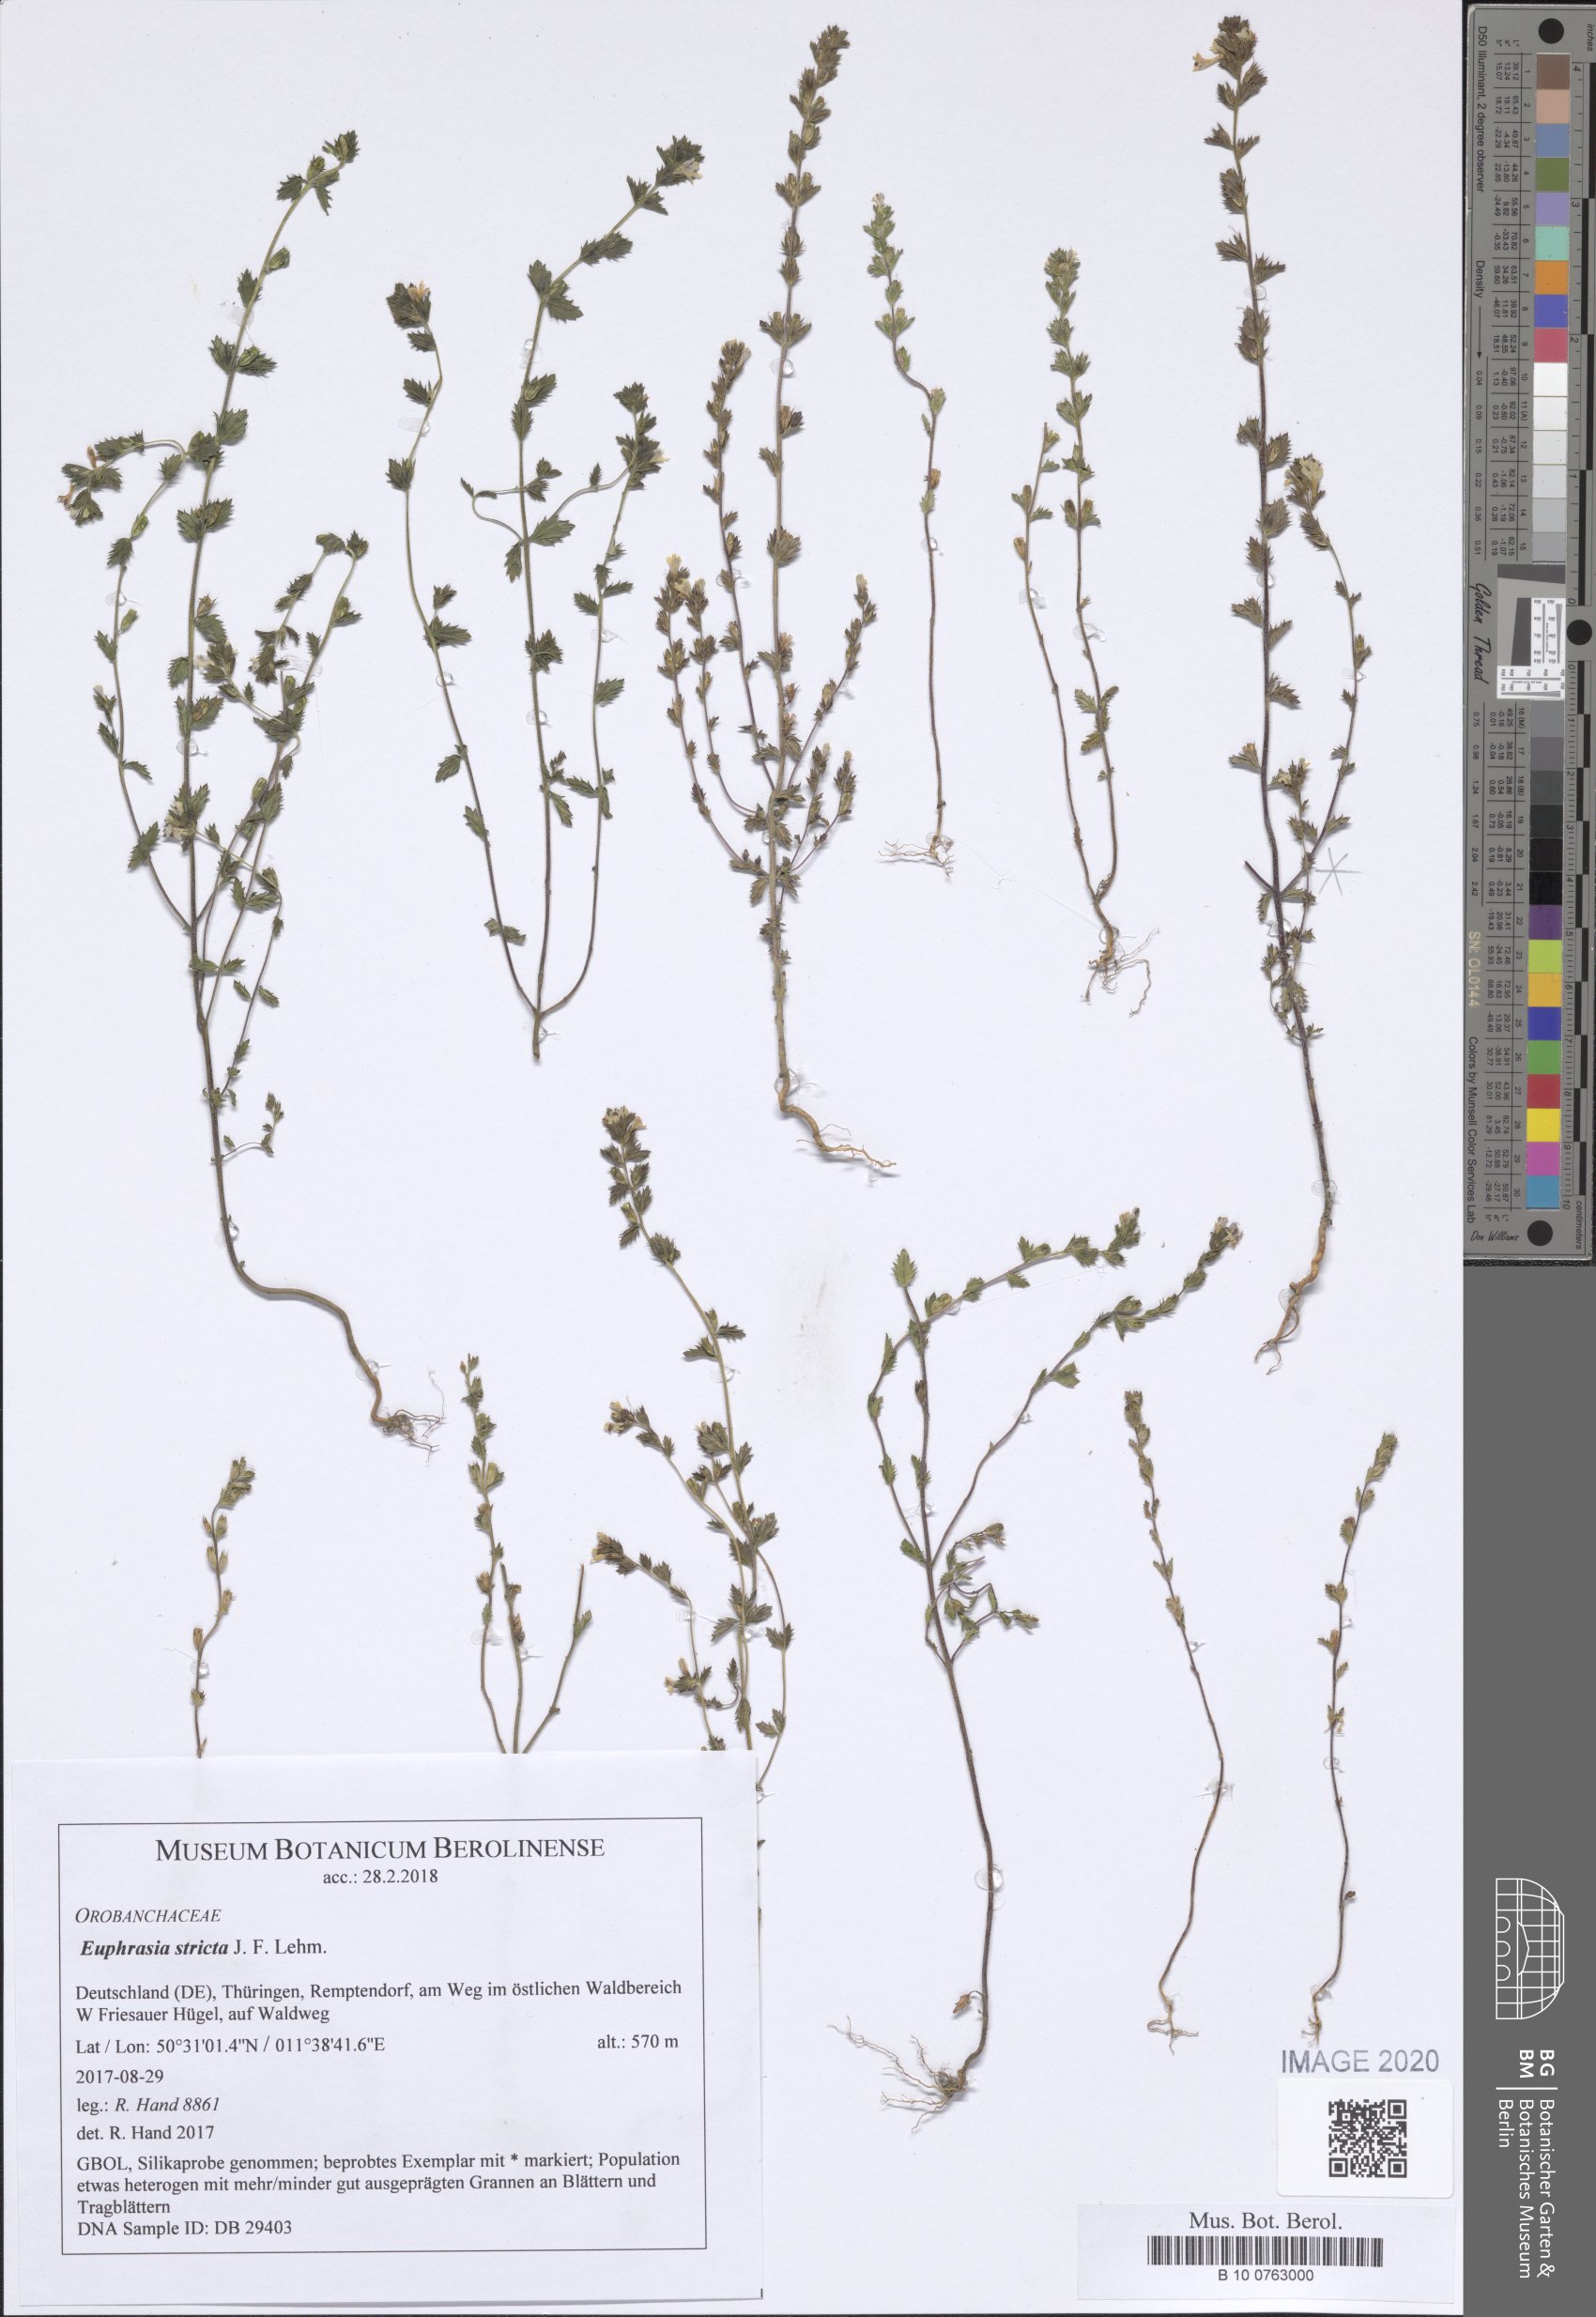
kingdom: Plantae
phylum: Tracheophyta
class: Magnoliopsida
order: Lamiales
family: Orobanchaceae
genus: Euphrasia
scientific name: Euphrasia stricta
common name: Drug eyebright
